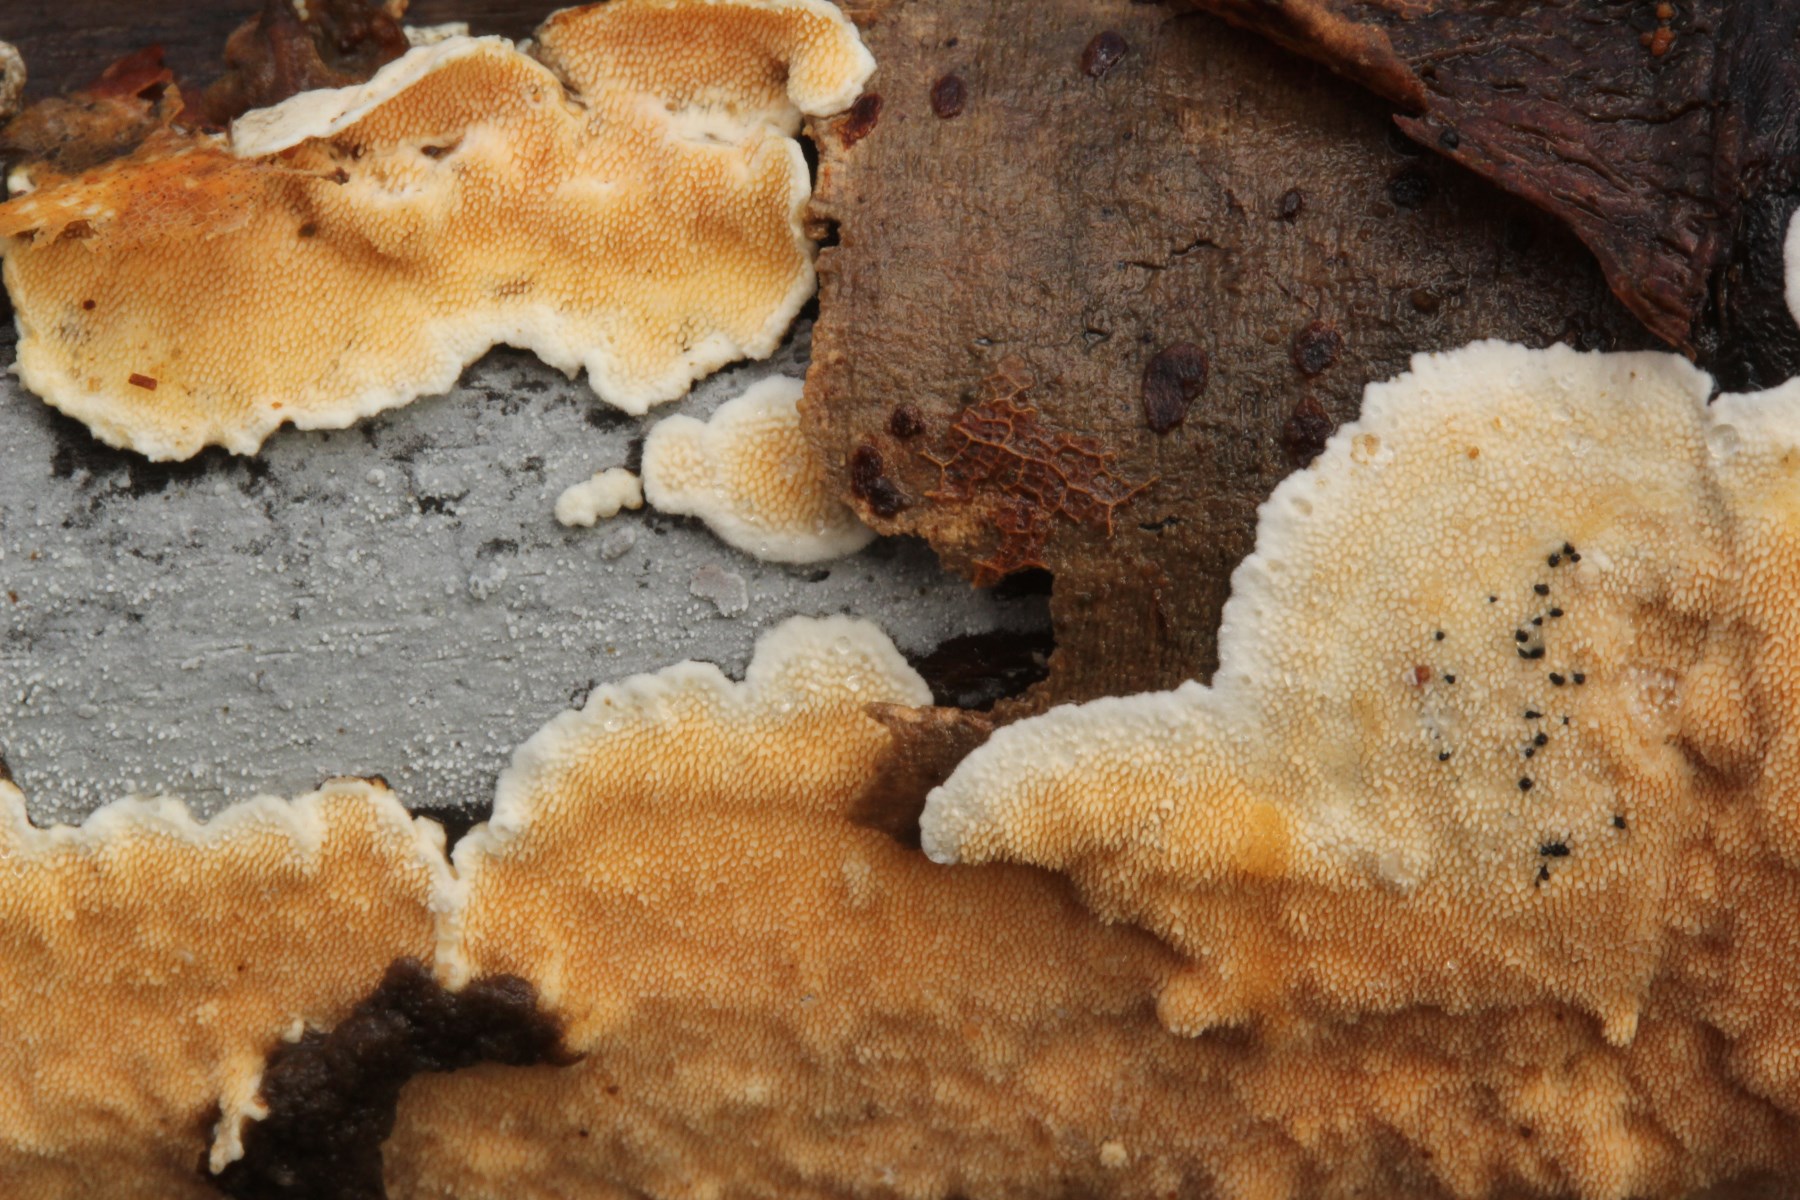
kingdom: Fungi
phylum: Basidiomycota
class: Agaricomycetes
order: Polyporales
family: Steccherinaceae
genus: Steccherinum
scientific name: Steccherinum ochraceum
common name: almindelig skønpig
